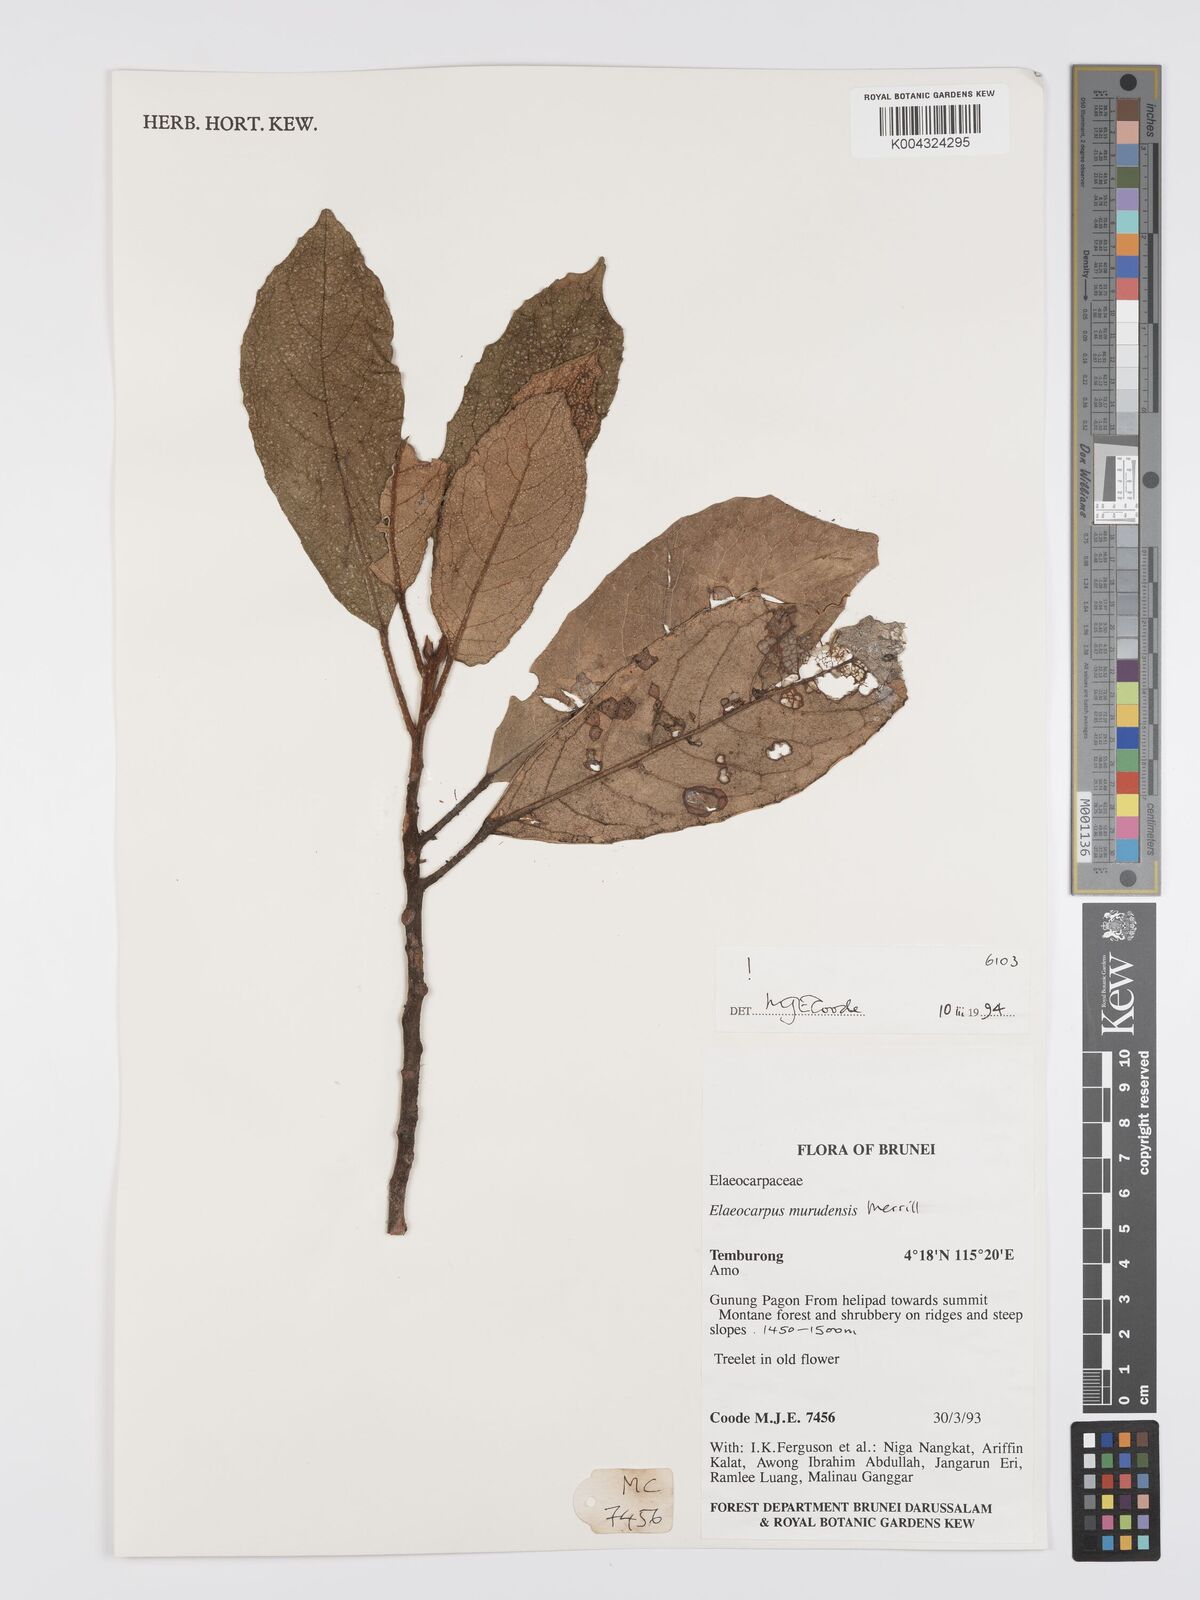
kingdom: Plantae
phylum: Tracheophyta
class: Magnoliopsida
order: Oxalidales
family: Elaeocarpaceae
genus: Elaeocarpus
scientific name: Elaeocarpus murudensis
